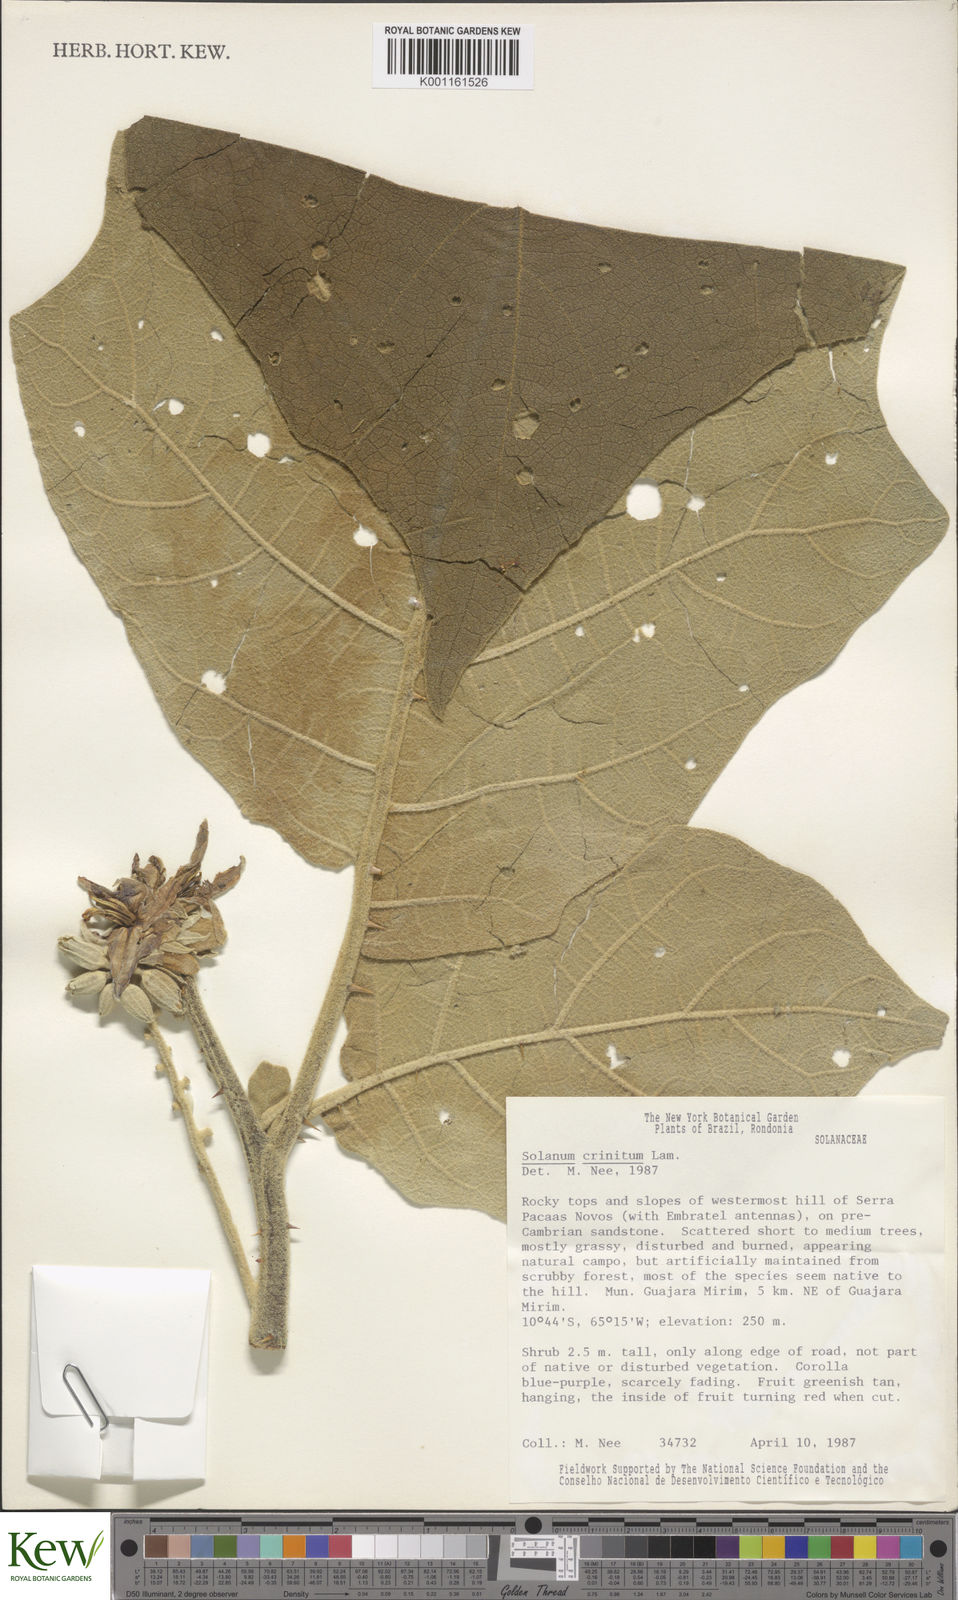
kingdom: Plantae
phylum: Tracheophyta
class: Magnoliopsida
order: Solanales
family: Solanaceae
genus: Solanum
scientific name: Solanum crinitum
